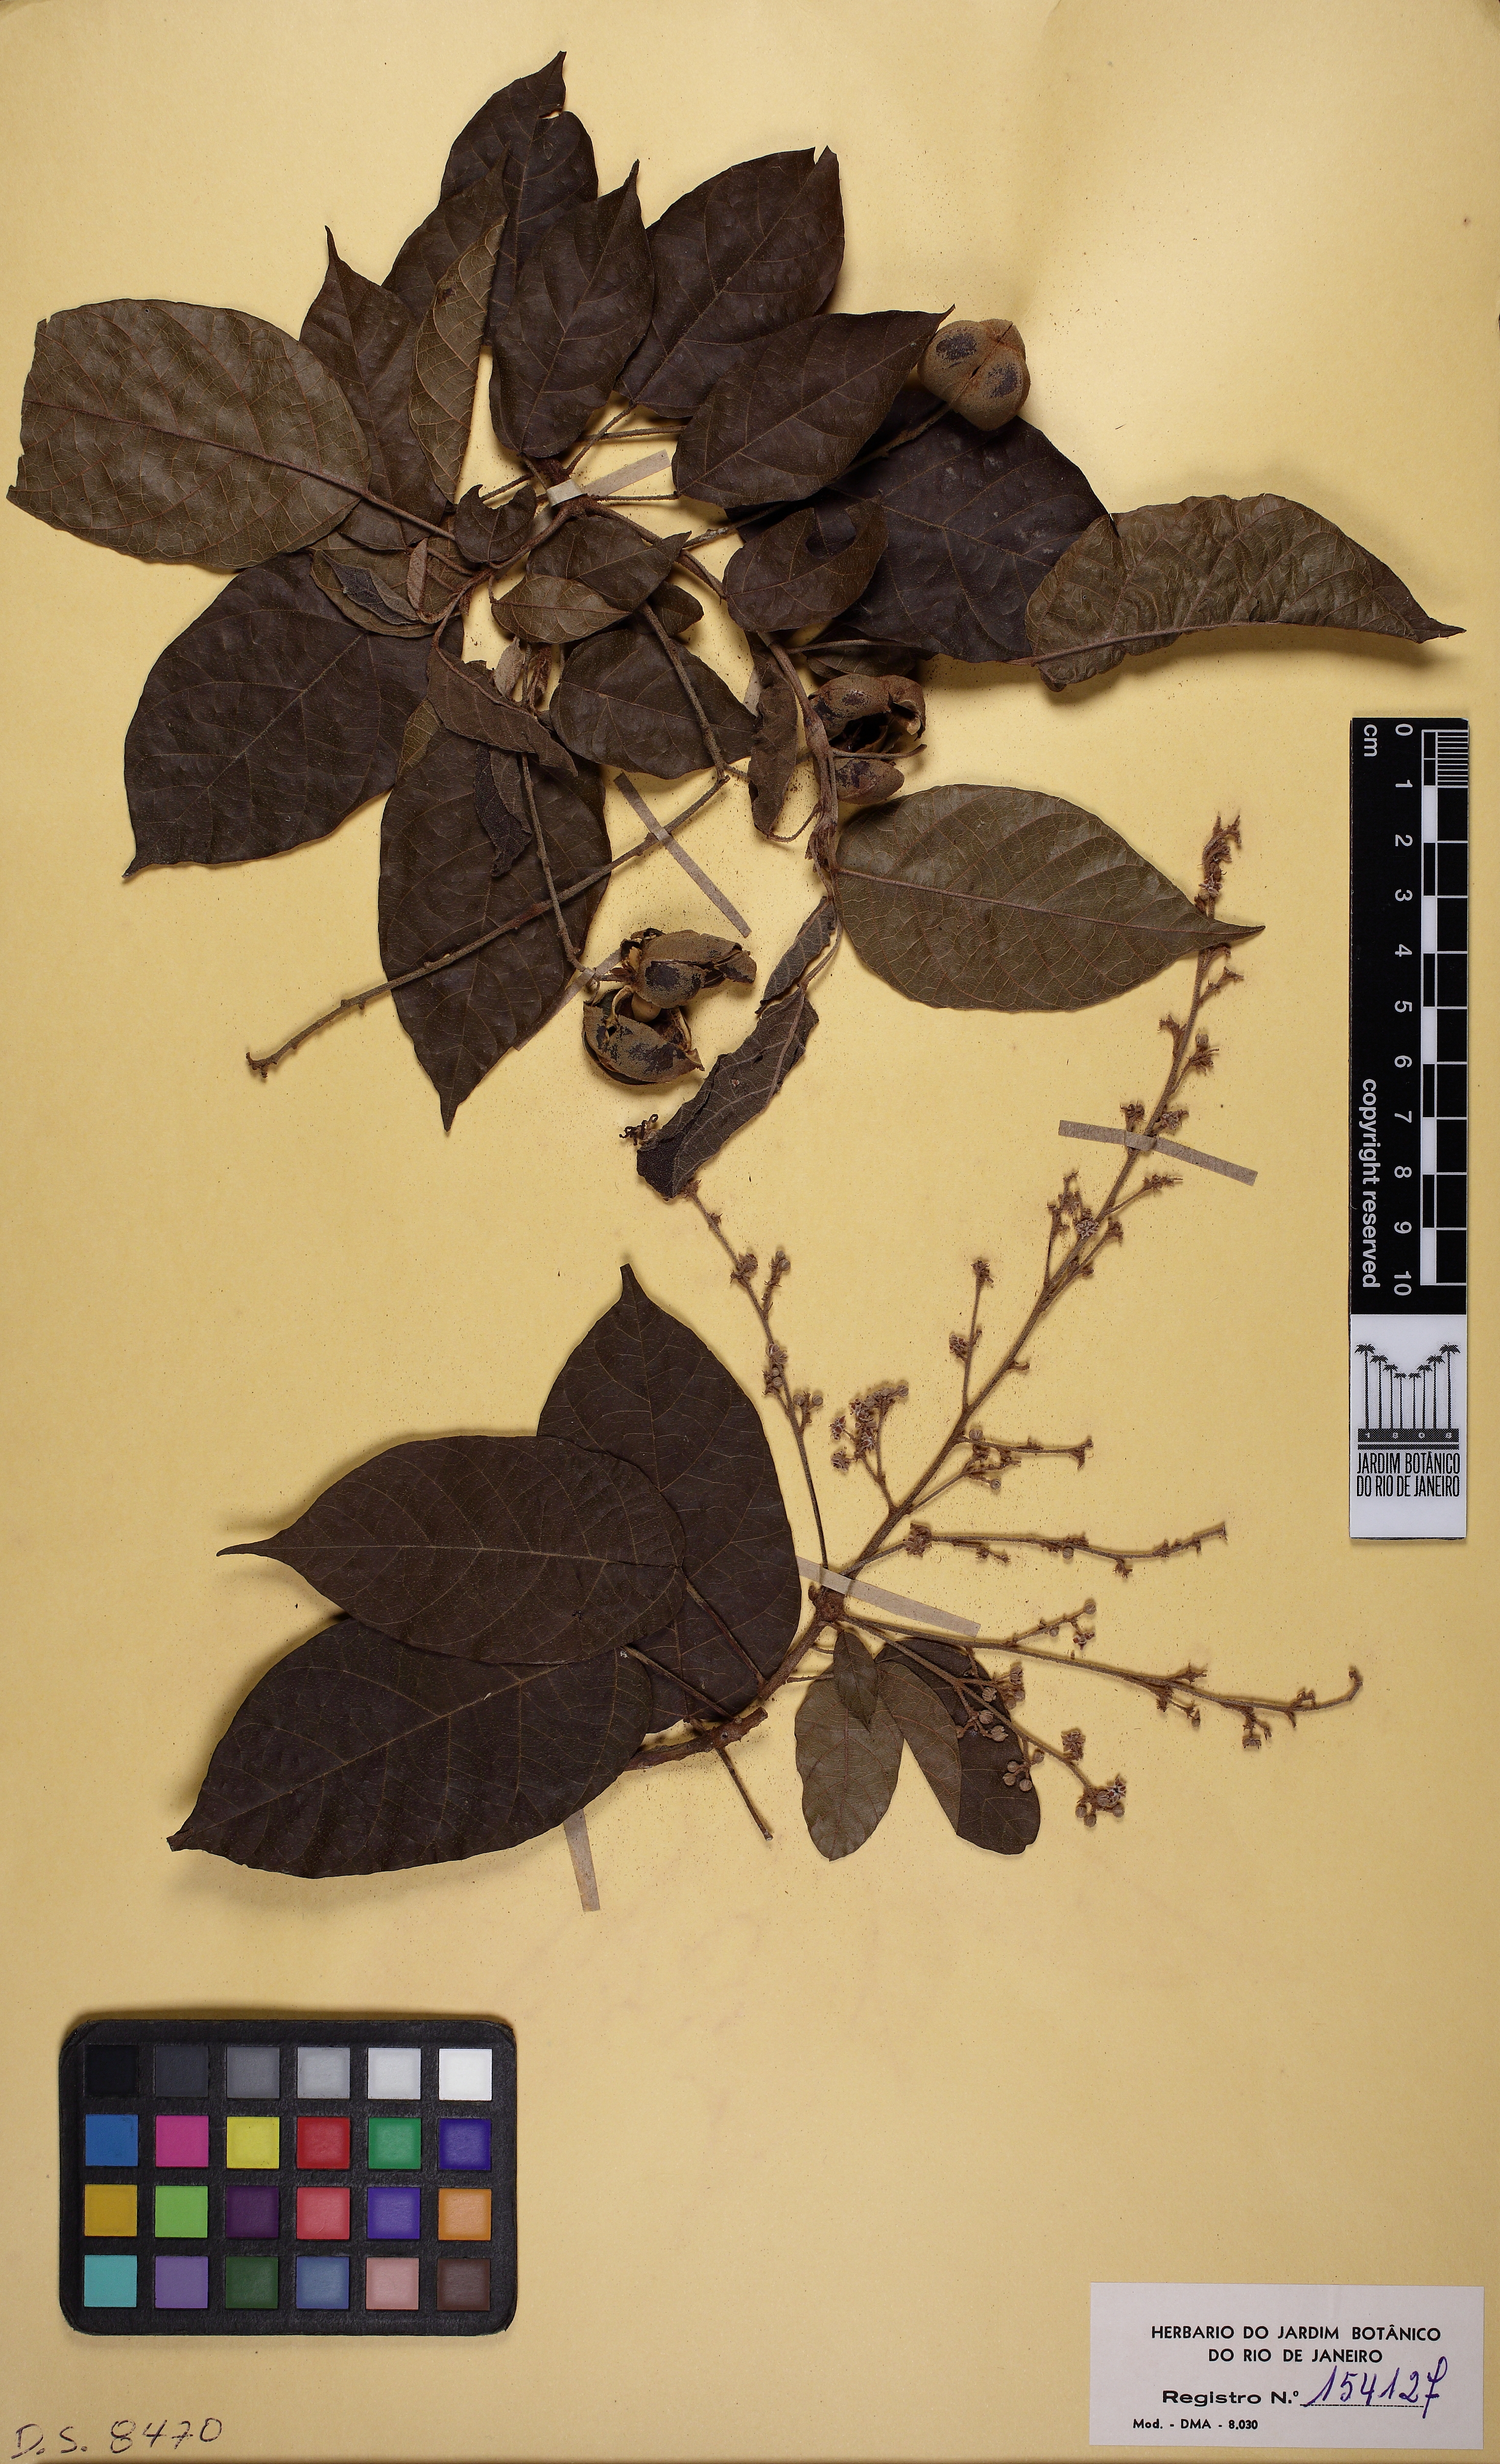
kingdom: Plantae
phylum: Tracheophyta
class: Magnoliopsida
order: Malpighiales
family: Euphorbiaceae
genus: Micrandra
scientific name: Micrandra
